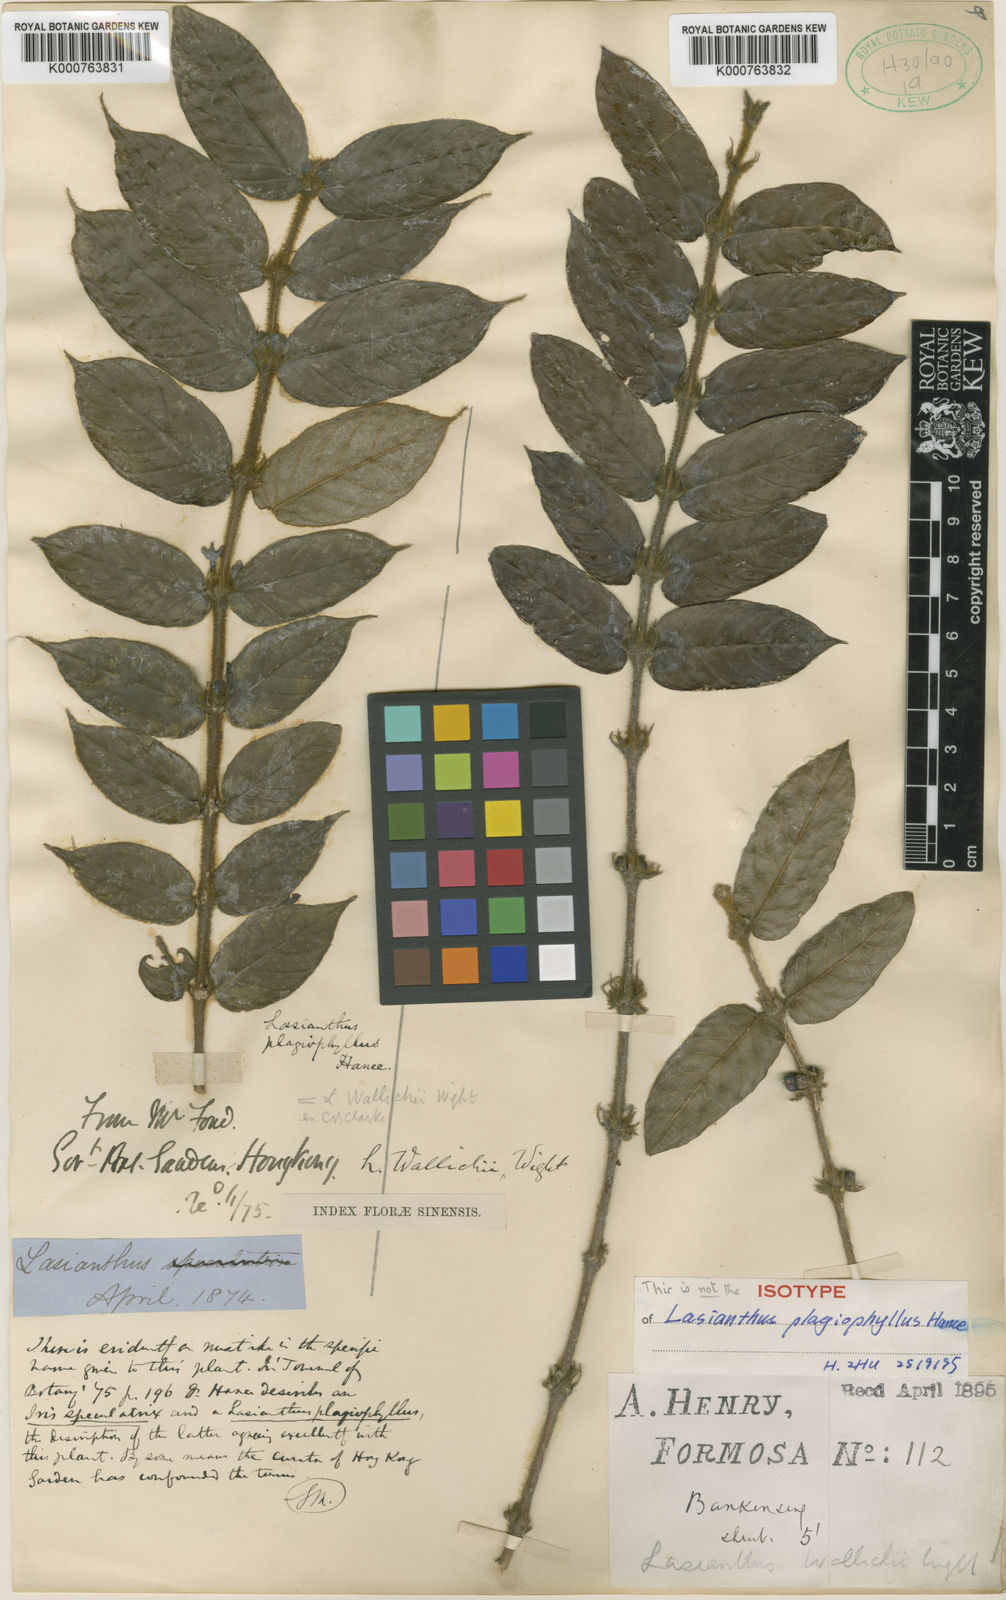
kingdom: Plantae
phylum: Tracheophyta
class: Magnoliopsida
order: Gentianales
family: Rubiaceae
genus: Lasianthus
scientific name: Lasianthus attenuatus
